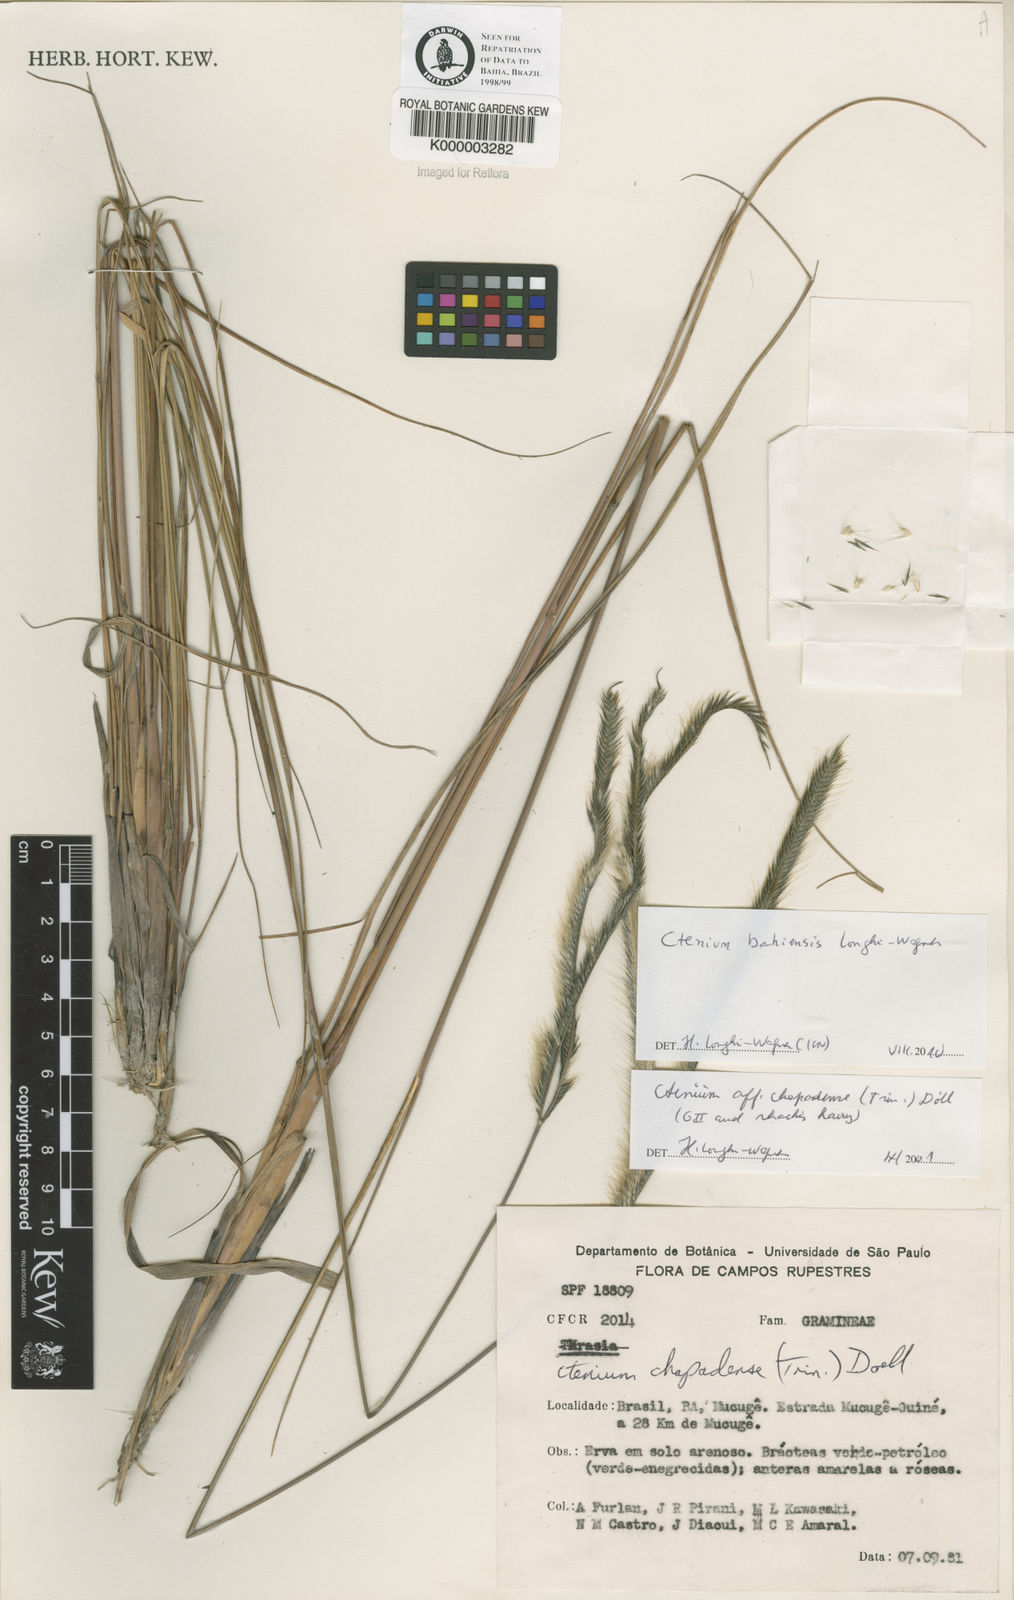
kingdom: Plantae
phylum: Tracheophyta
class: Liliopsida
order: Poales
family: Poaceae
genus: Ctenium
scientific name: Ctenium
